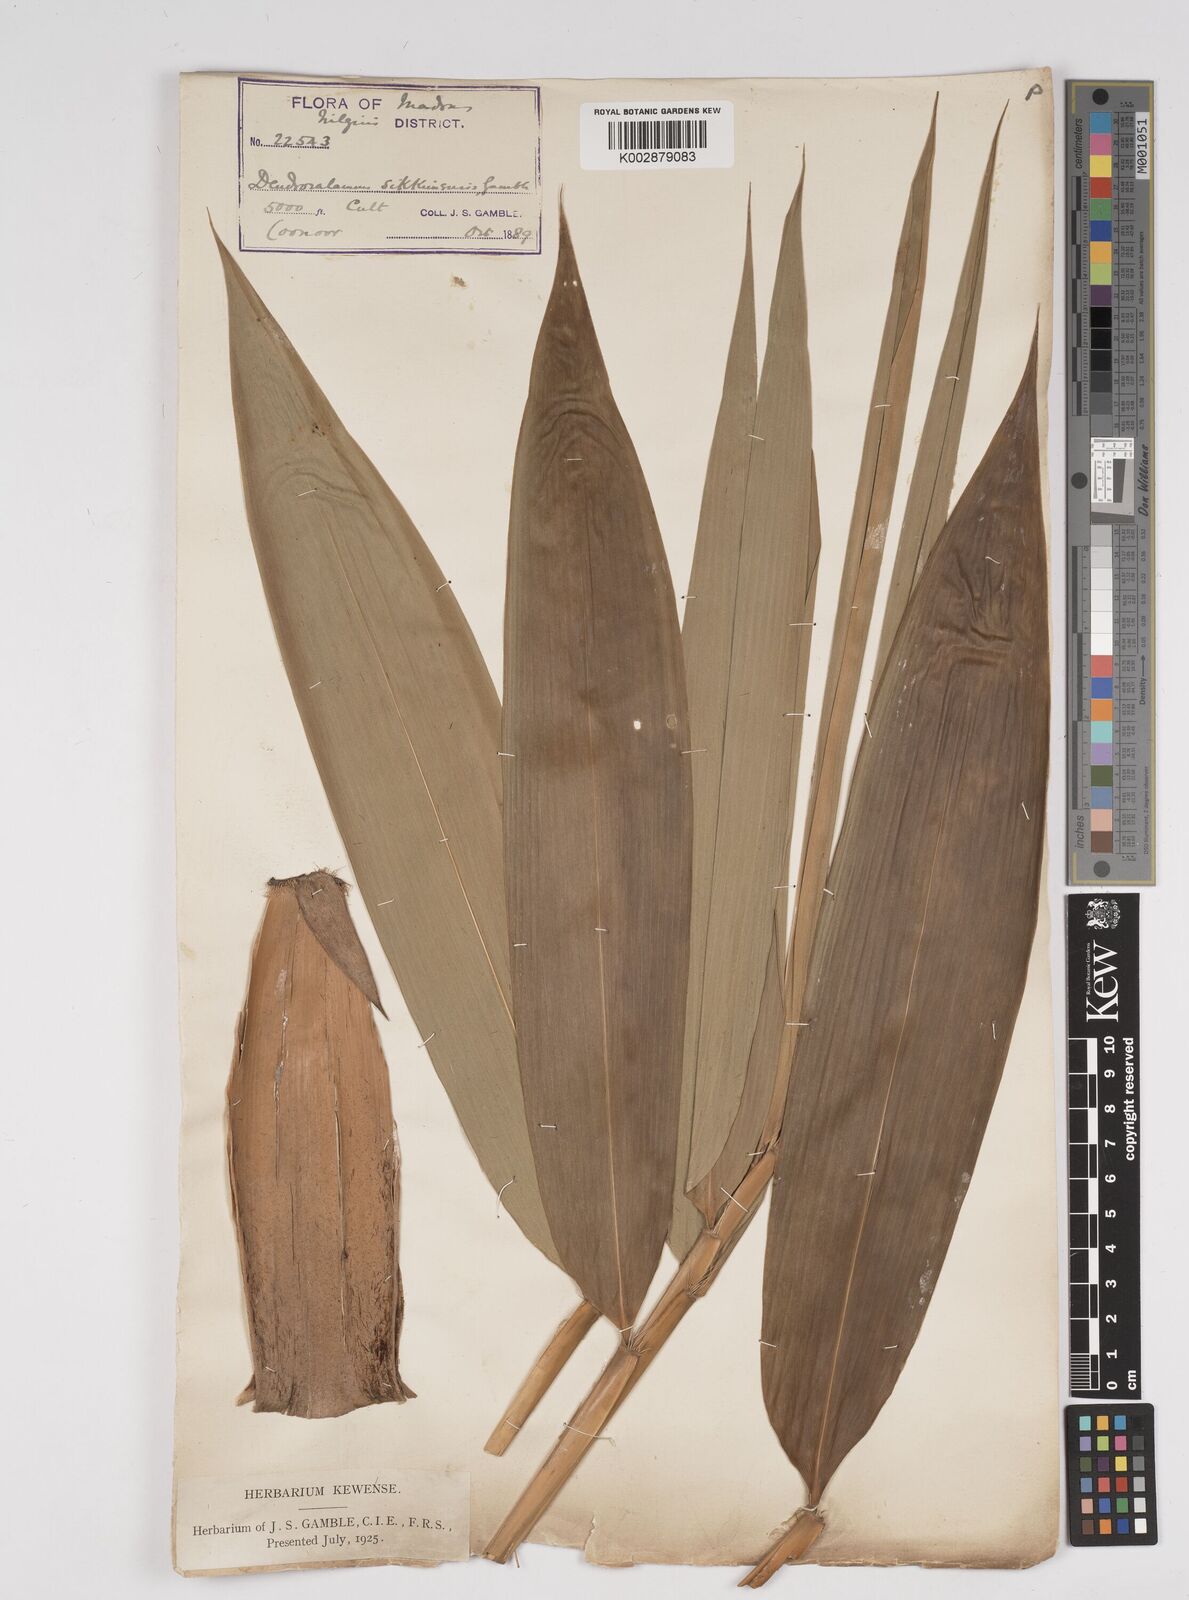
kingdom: Plantae
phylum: Tracheophyta
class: Liliopsida
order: Poales
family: Poaceae
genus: Dendrocalamus
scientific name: Dendrocalamus sikkimensis
